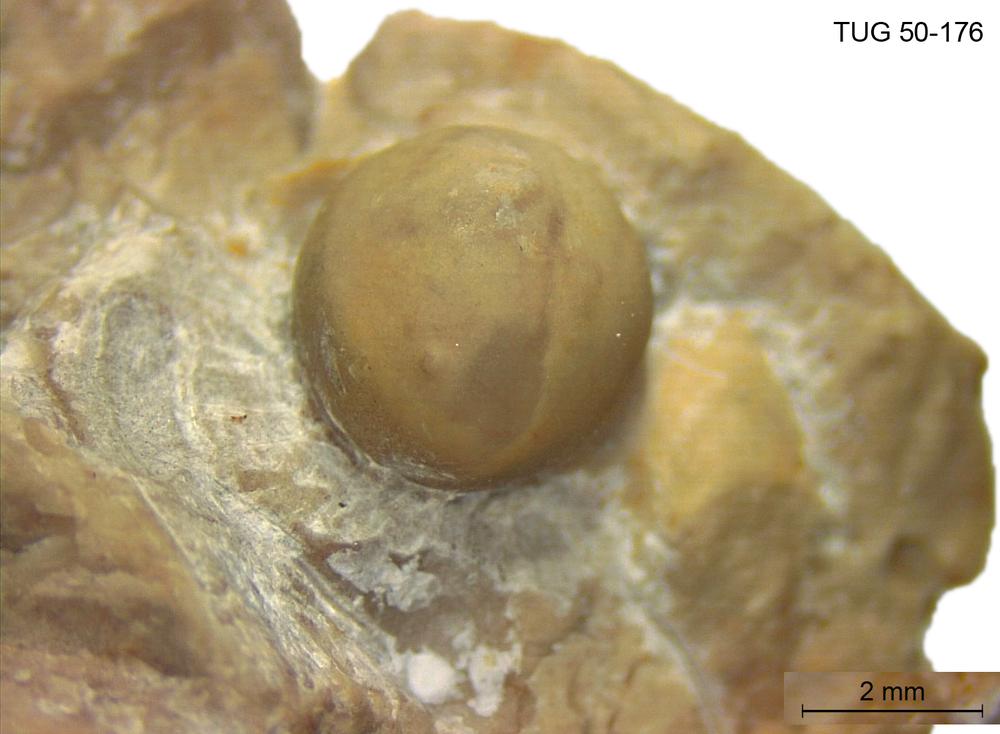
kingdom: Animalia
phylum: Arthropoda
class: Trilobita
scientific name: Trilobita
